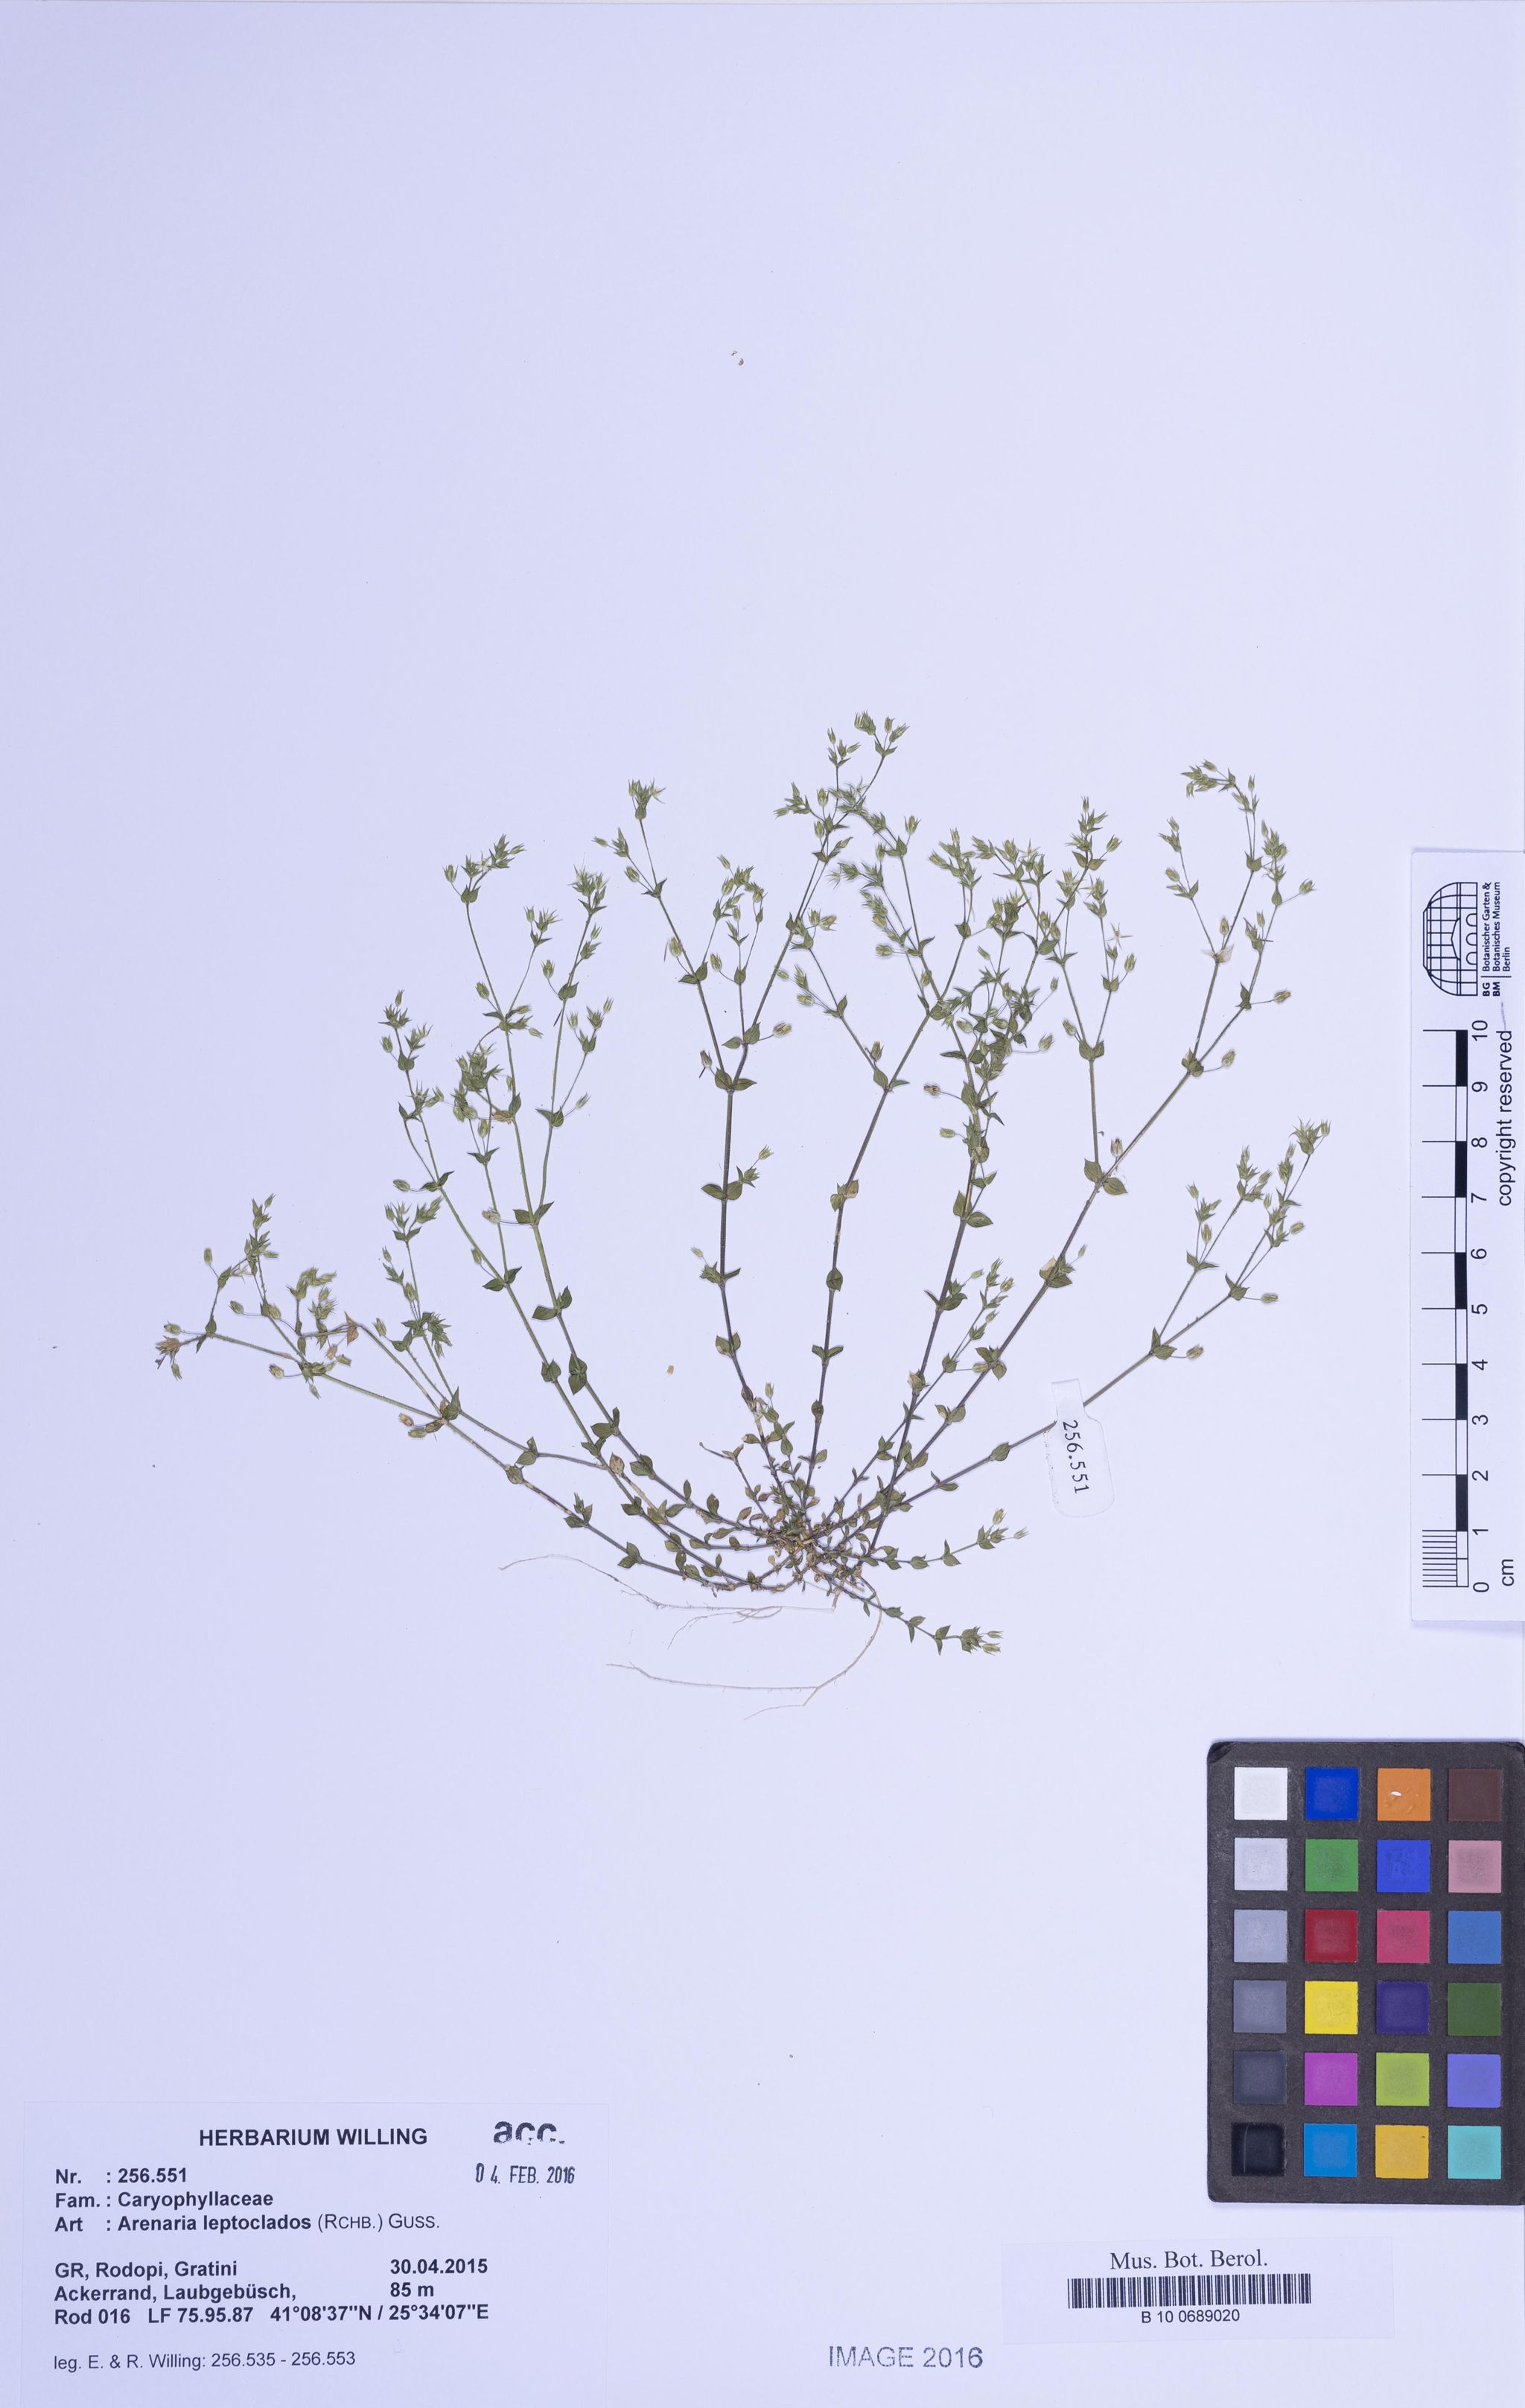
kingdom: Plantae
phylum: Tracheophyta
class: Magnoliopsida
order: Caryophyllales
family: Caryophyllaceae
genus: Arenaria
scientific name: Arenaria leptoclados
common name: Thyme-leaved sandwort
